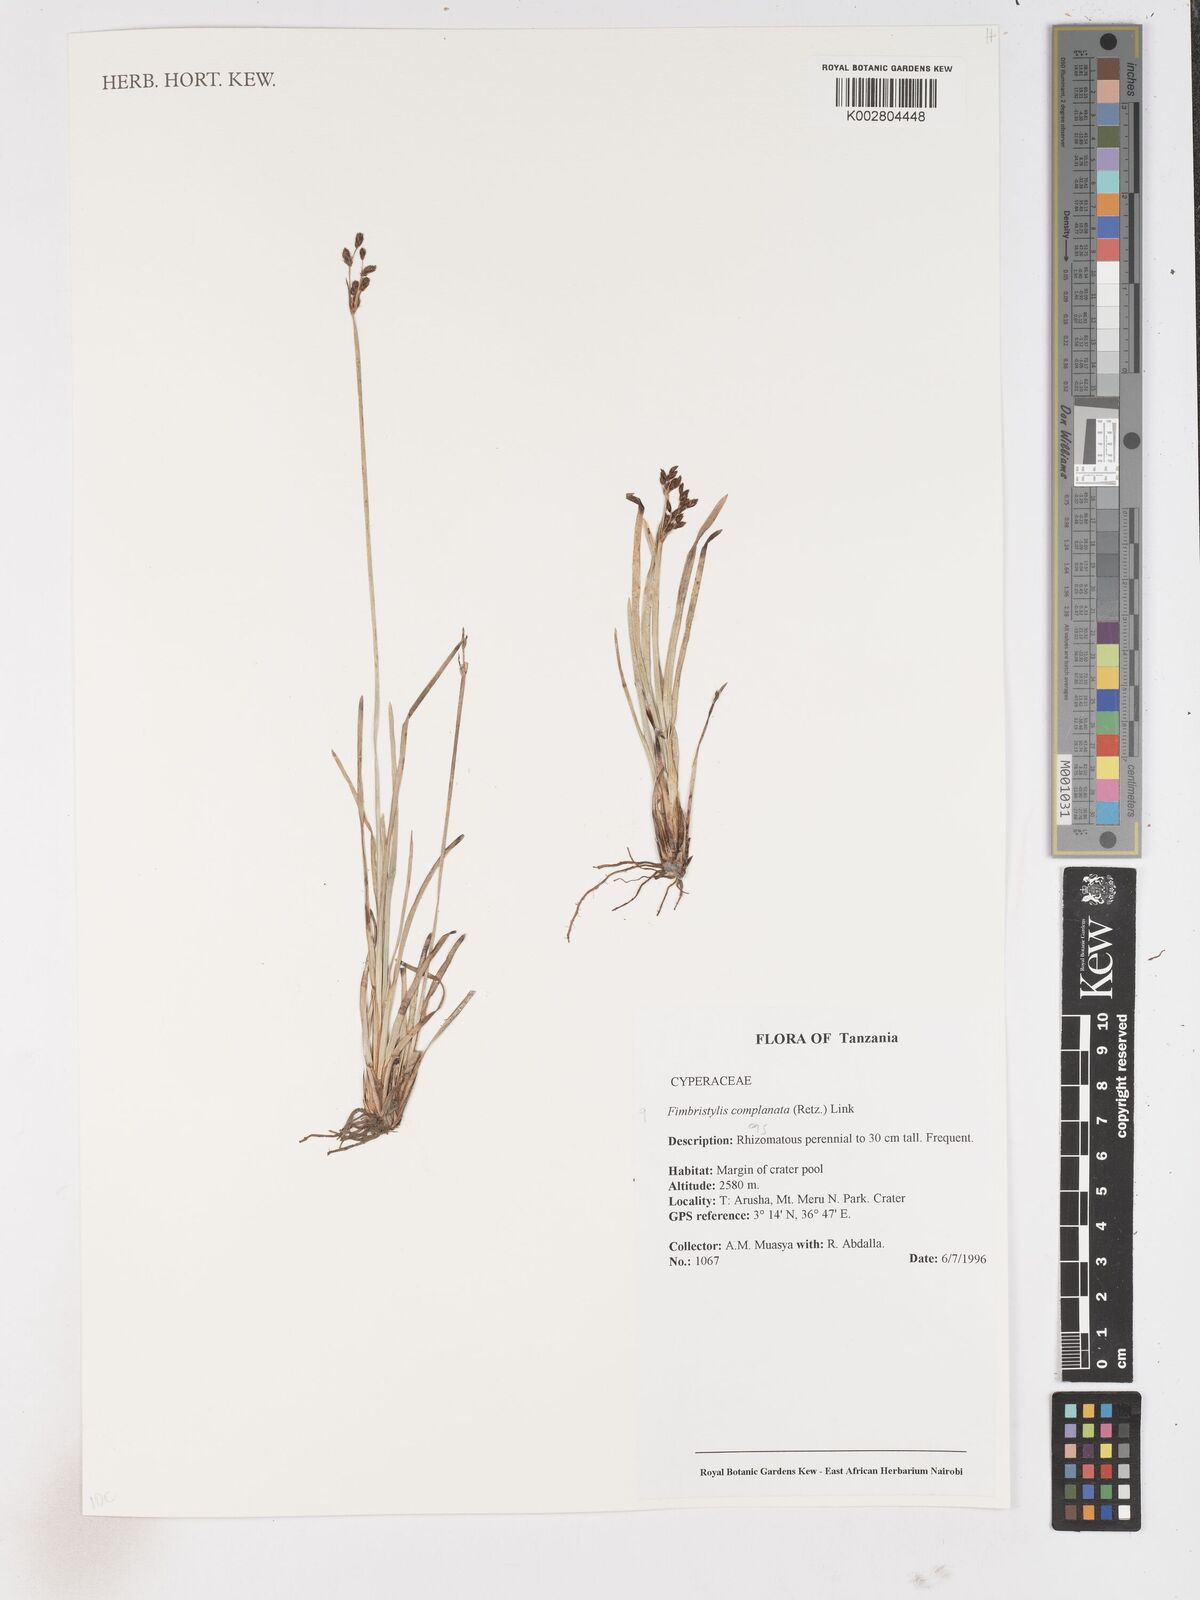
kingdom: Plantae
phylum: Tracheophyta
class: Liliopsida
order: Poales
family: Cyperaceae
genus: Fimbristylis
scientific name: Fimbristylis complanata
